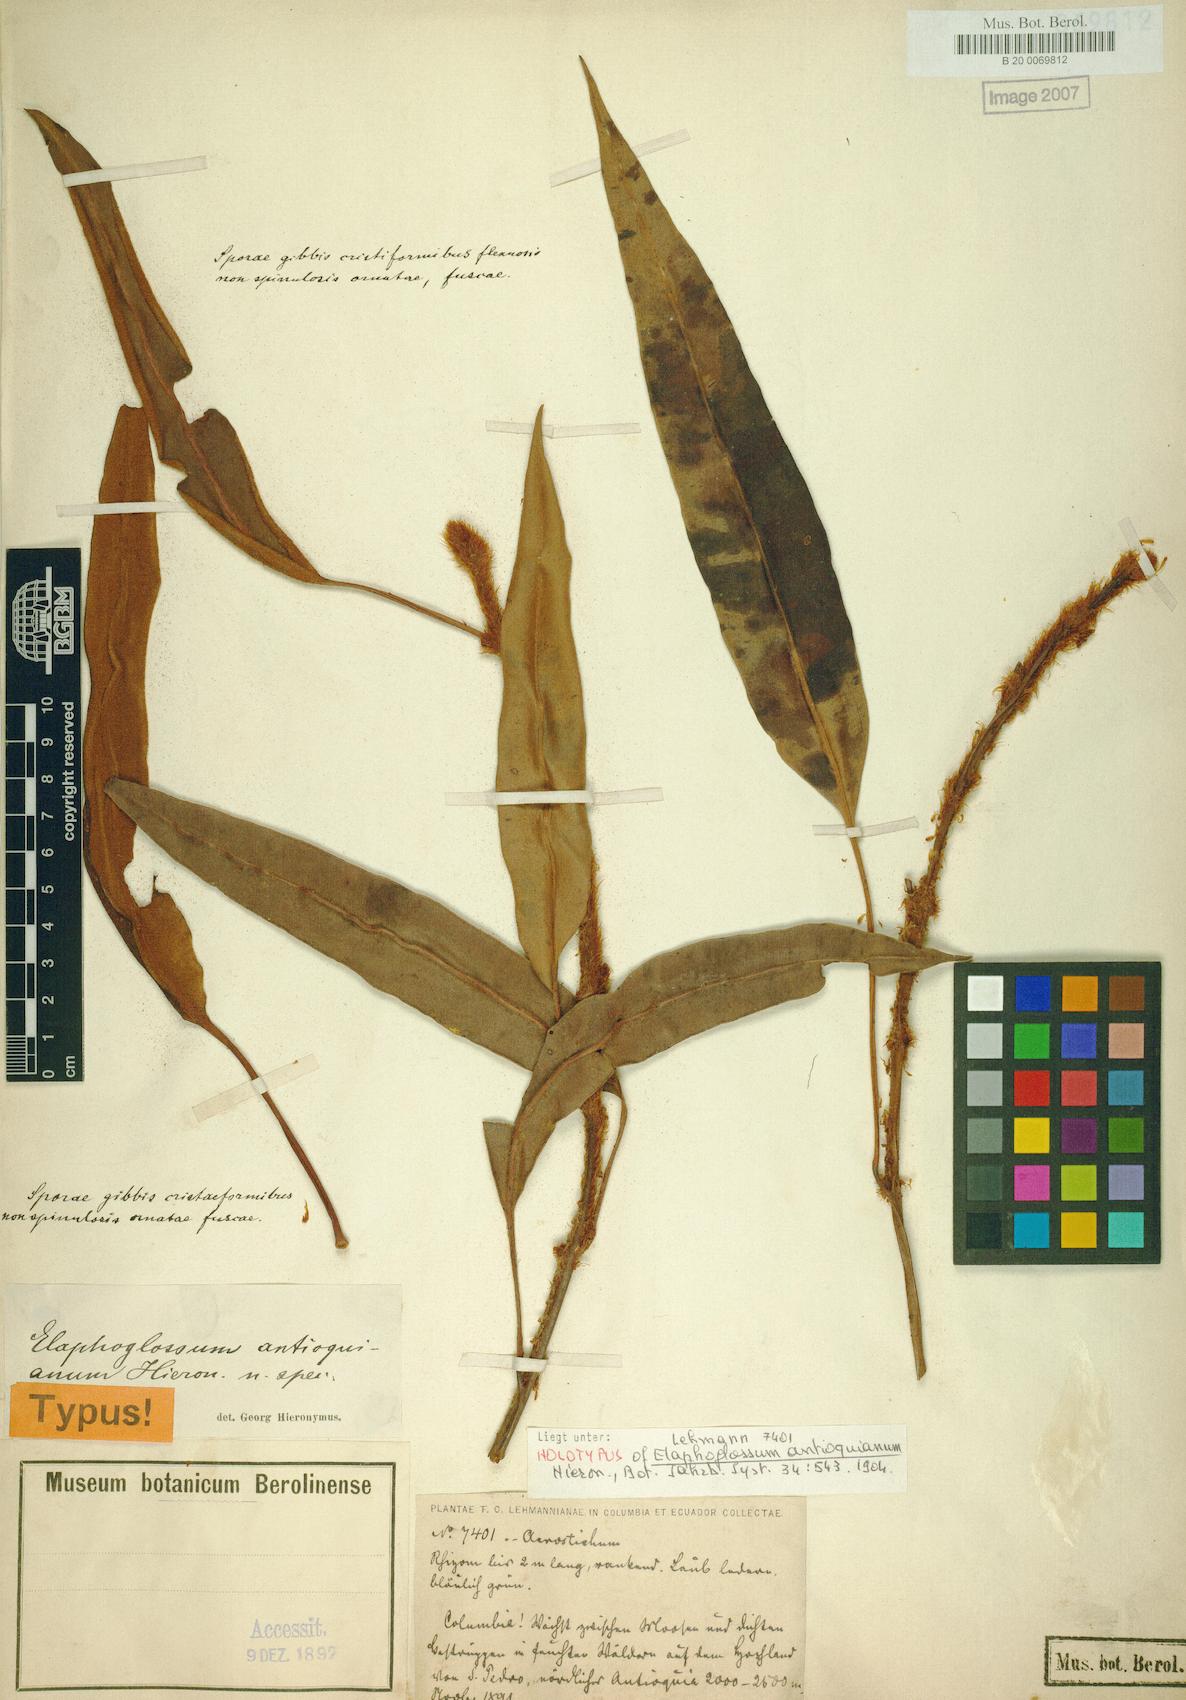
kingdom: Plantae
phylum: Tracheophyta
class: Polypodiopsida
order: Polypodiales
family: Dryopteridaceae
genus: Elaphoglossum
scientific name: Elaphoglossum antioquianum
